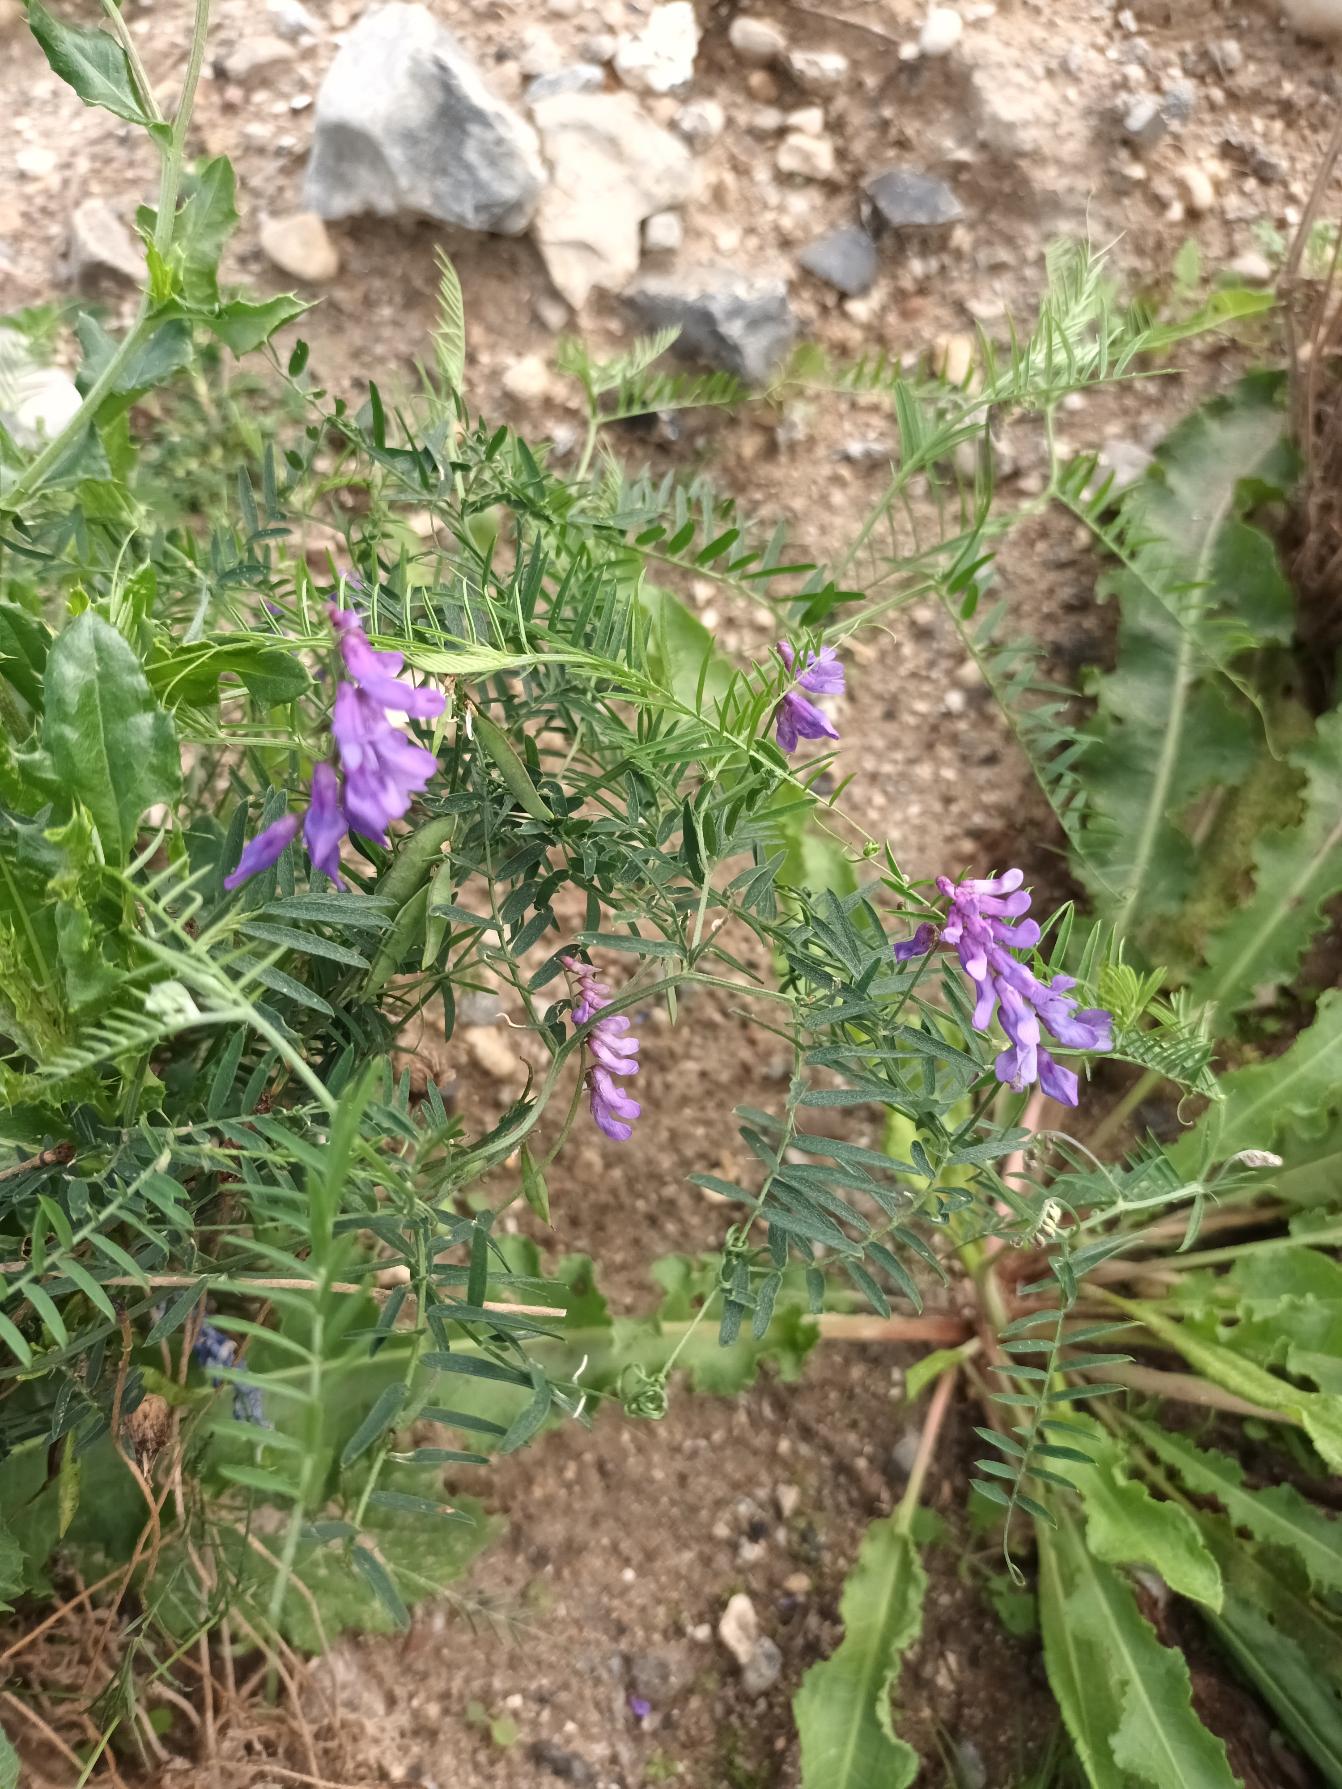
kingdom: Plantae
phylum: Tracheophyta
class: Magnoliopsida
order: Fabales
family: Fabaceae
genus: Vicia
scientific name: Vicia cracca
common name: Muse-vikke
